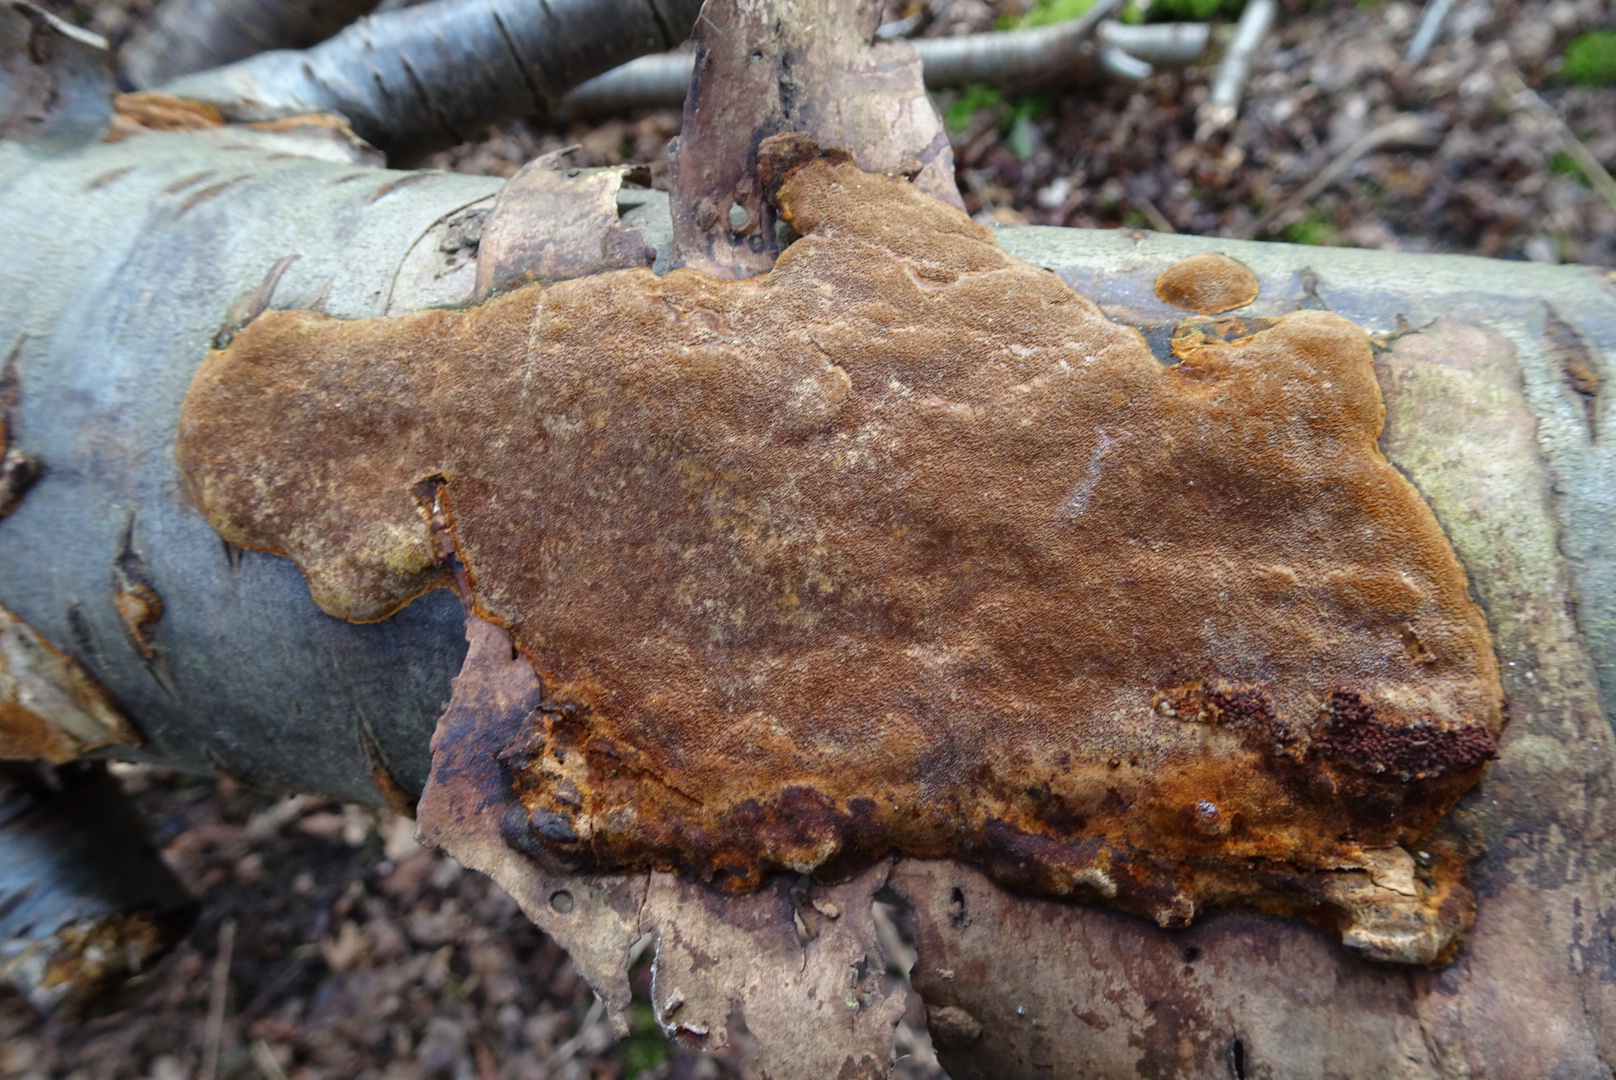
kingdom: Fungi
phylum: Basidiomycota
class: Agaricomycetes
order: Hymenochaetales
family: Hymenochaetaceae
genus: Fuscoporia
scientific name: Fuscoporia ferrea
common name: skorpe-ildporesvamp
